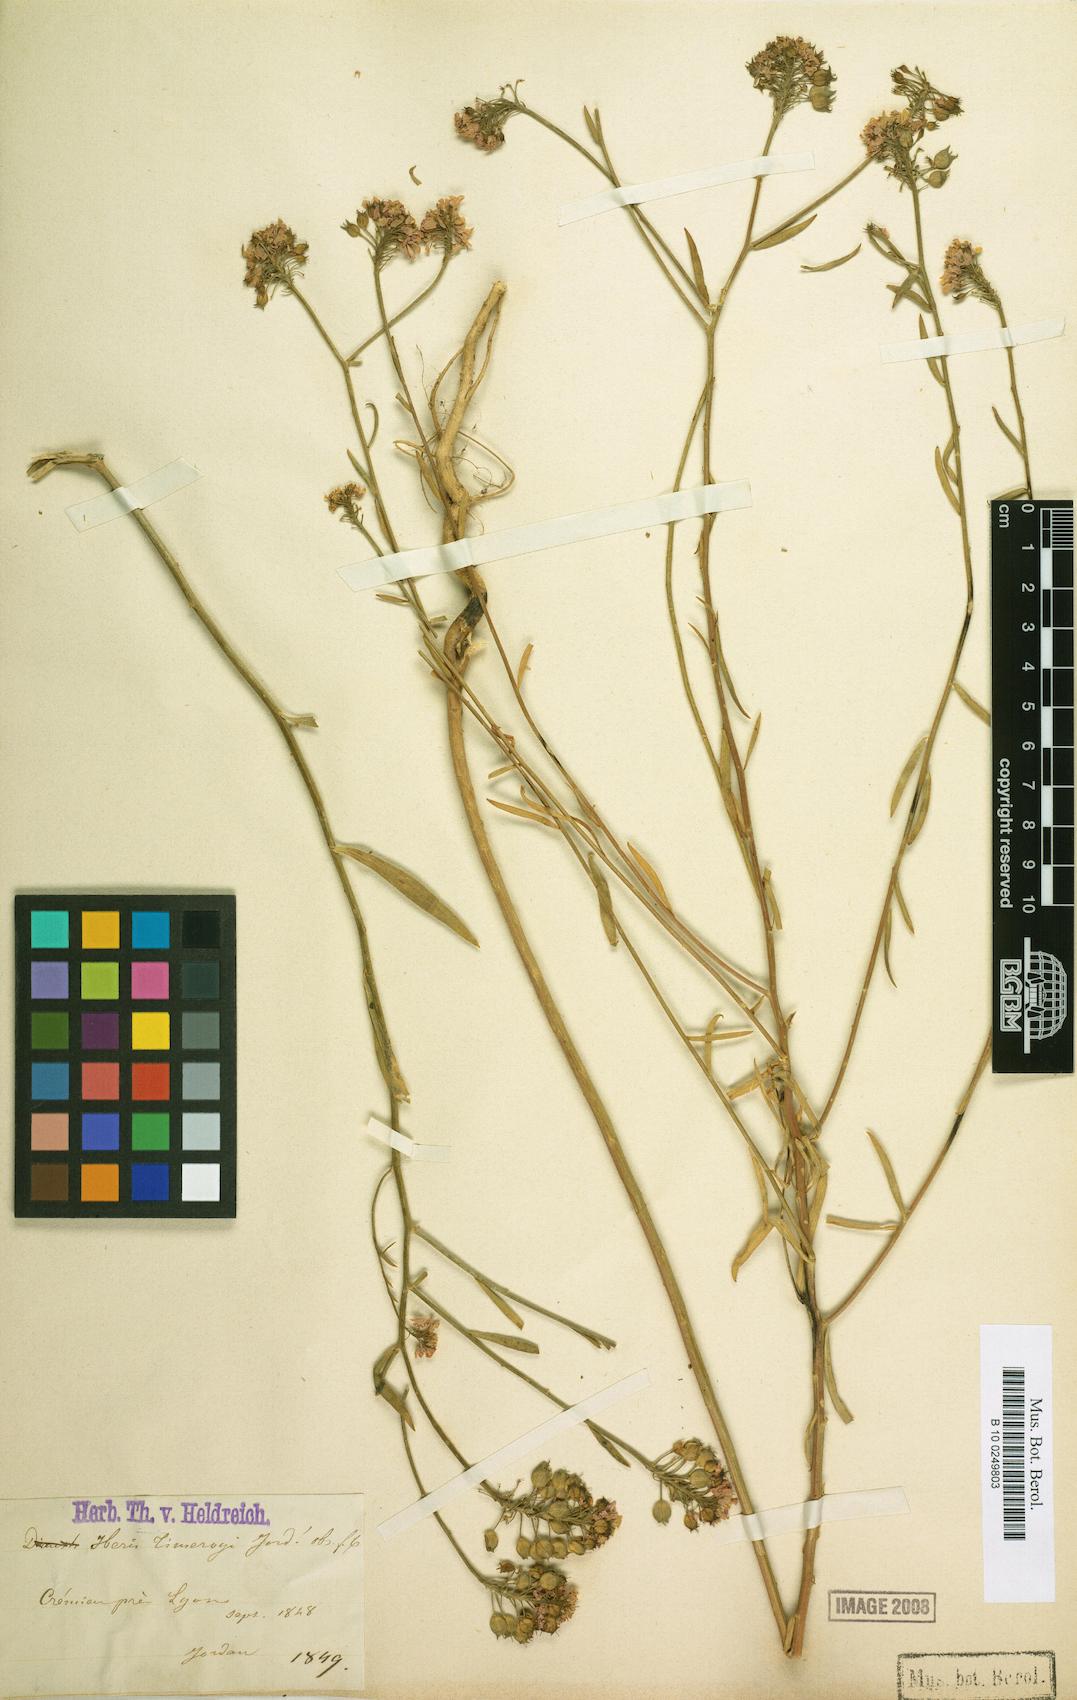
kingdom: Plantae
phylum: Tracheophyta
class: Magnoliopsida
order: Brassicales
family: Brassicaceae
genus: Iberis
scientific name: Iberis linifolia
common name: Candytuft
